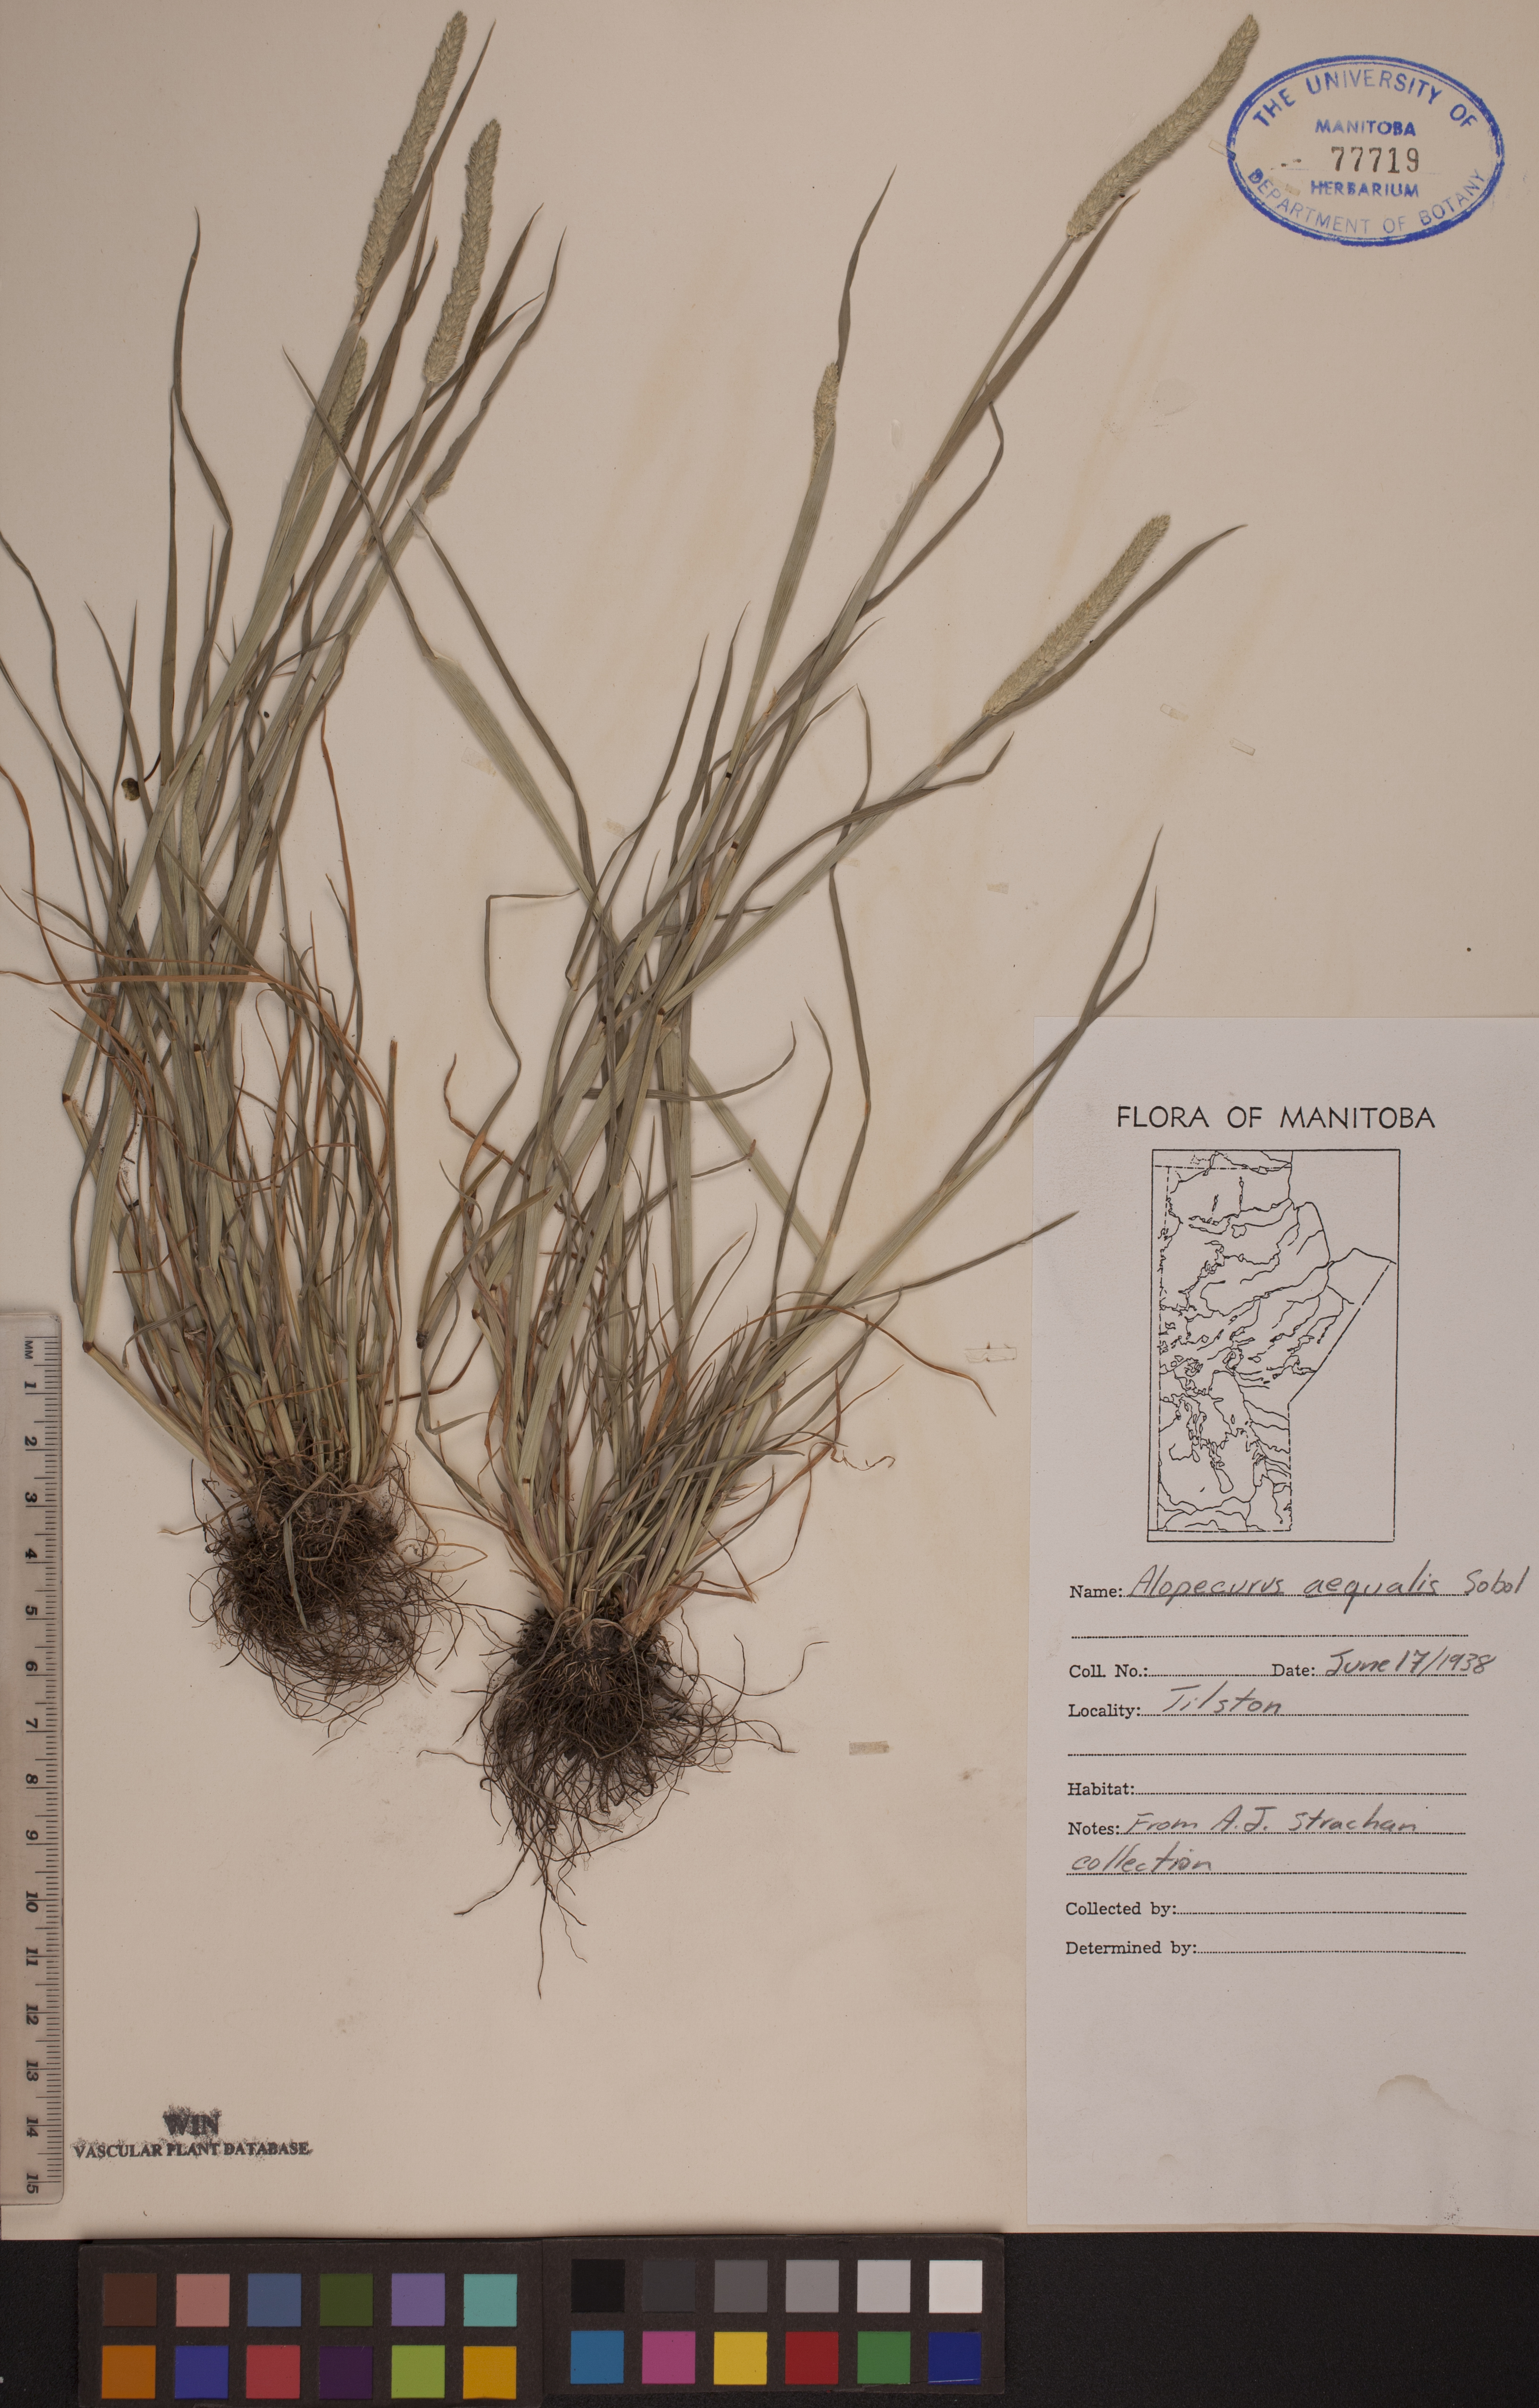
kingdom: Plantae
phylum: Tracheophyta
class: Liliopsida
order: Poales
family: Poaceae
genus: Alopecurus
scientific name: Alopecurus aequalis
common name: Orange foxtail
